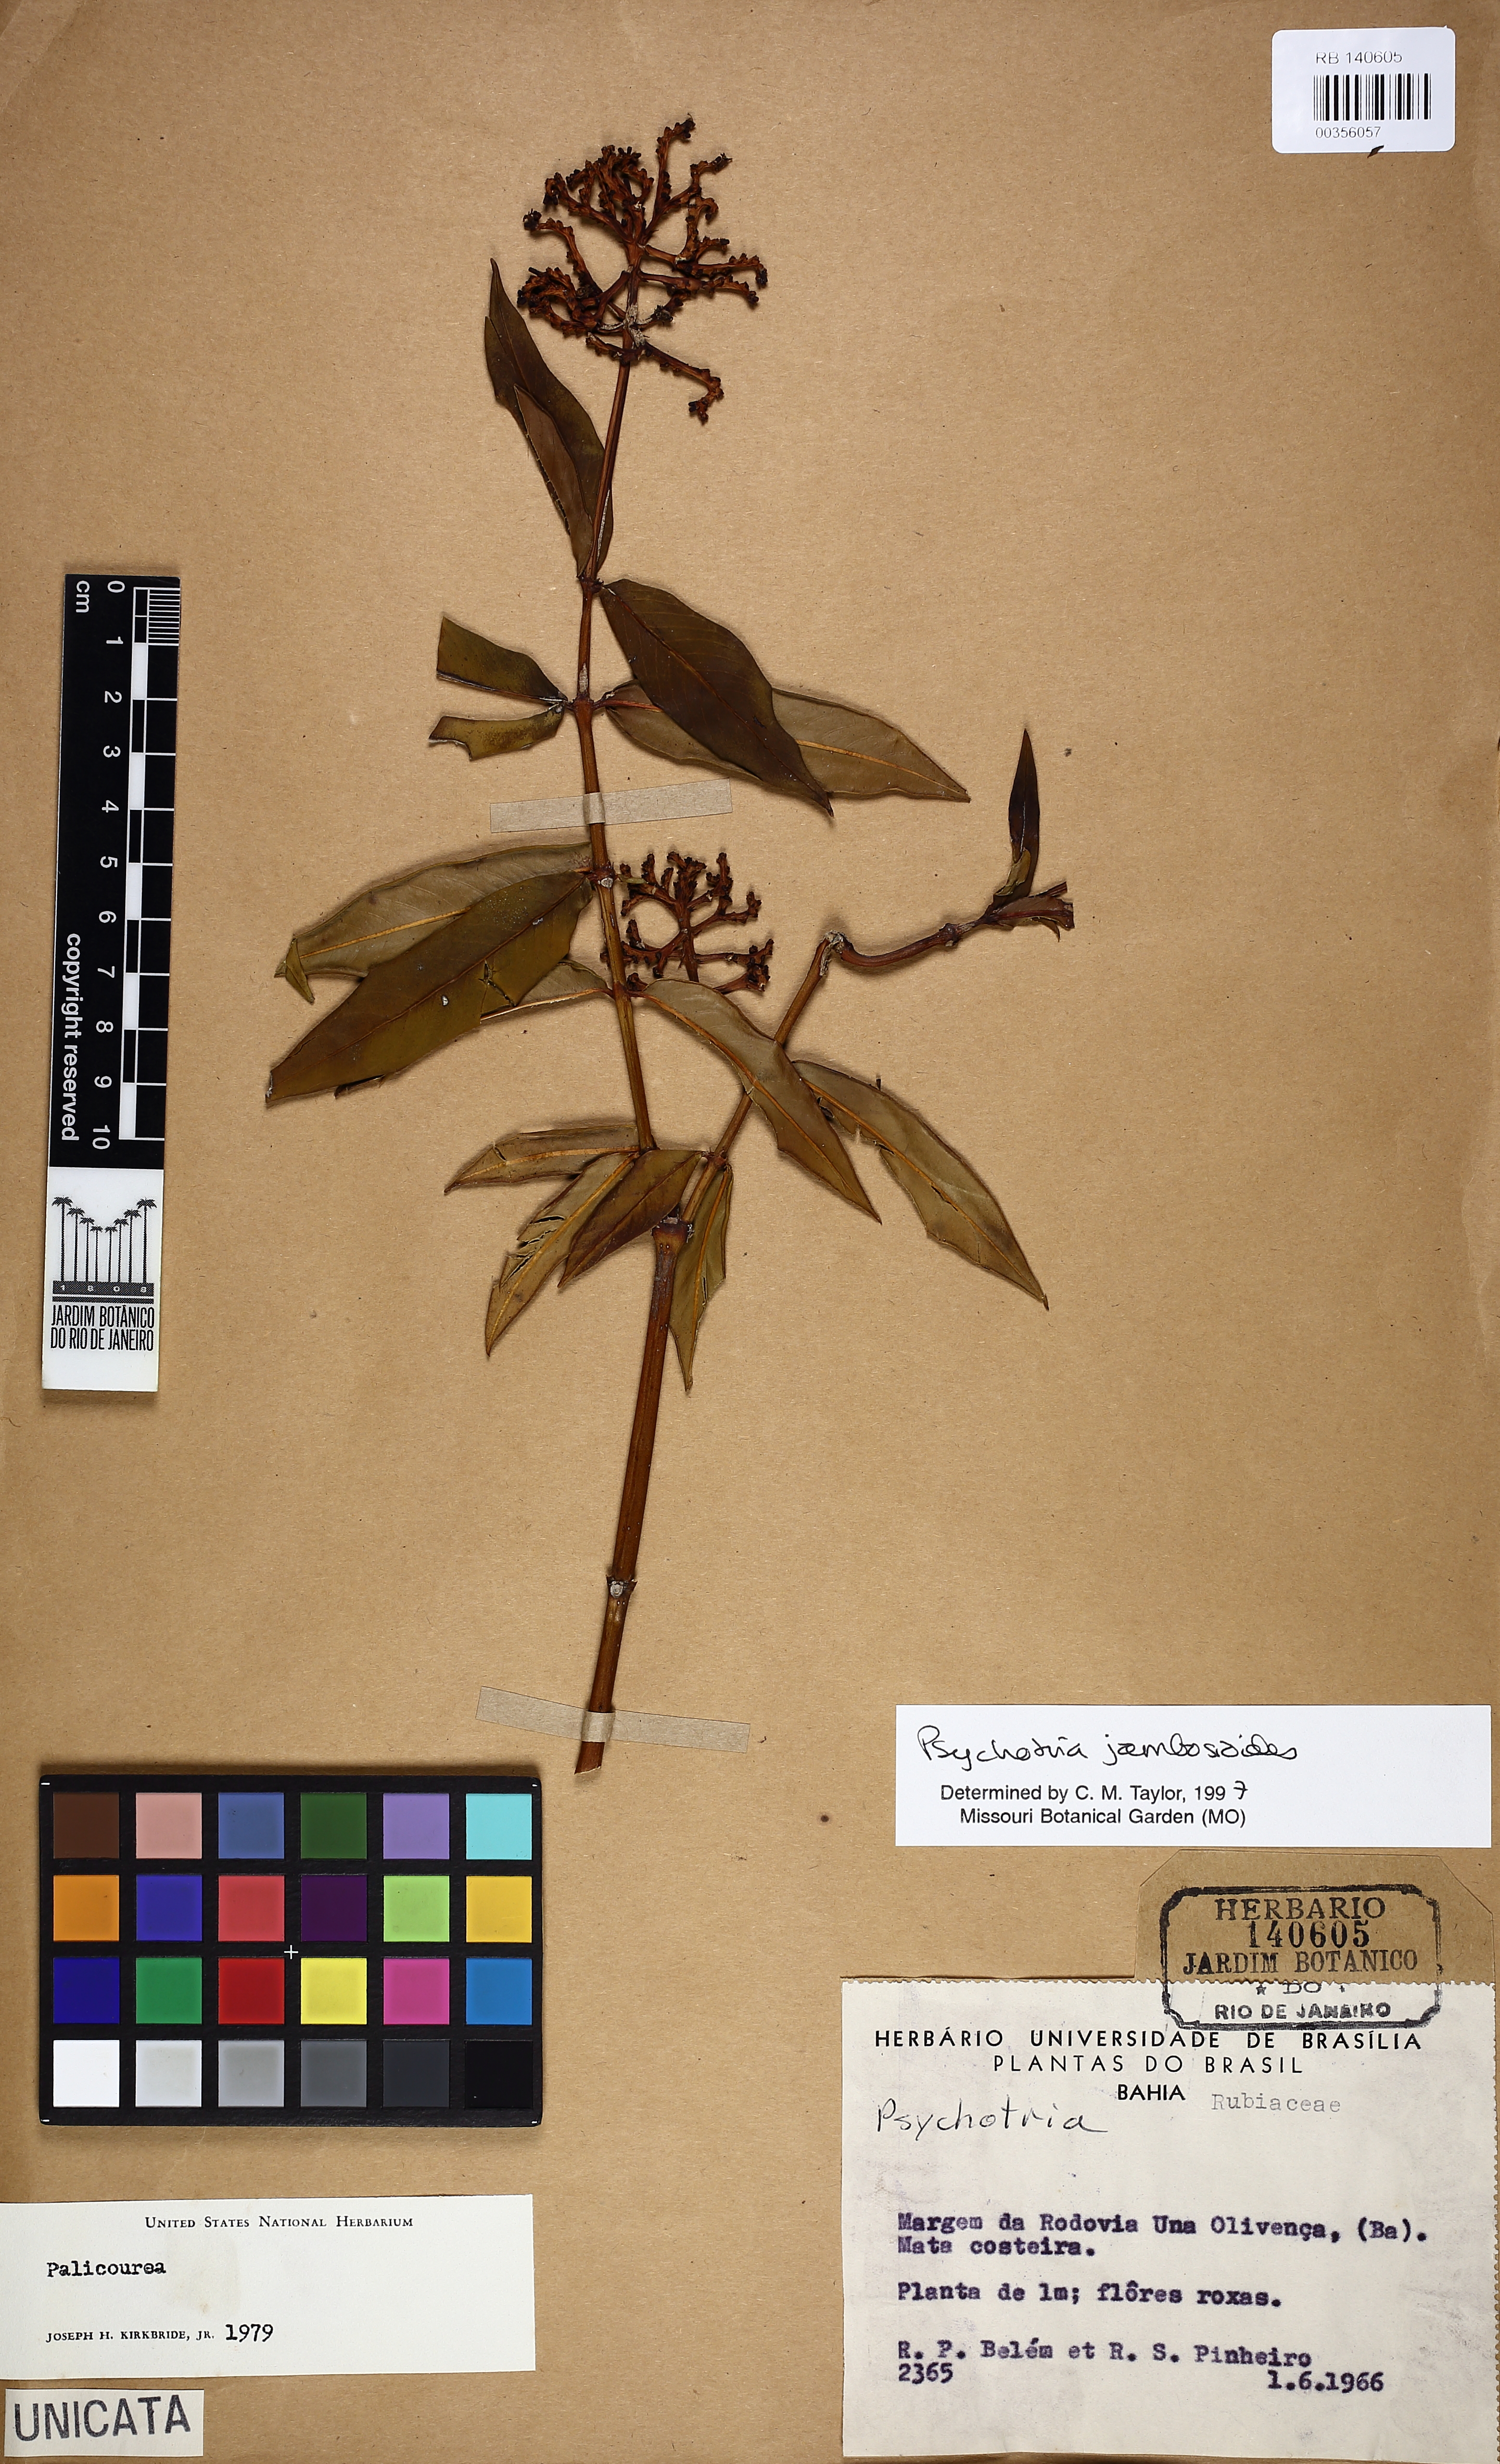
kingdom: Plantae
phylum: Tracheophyta
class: Magnoliopsida
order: Gentianales
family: Rubiaceae
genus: Palicourea
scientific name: Palicourea jambosioides
